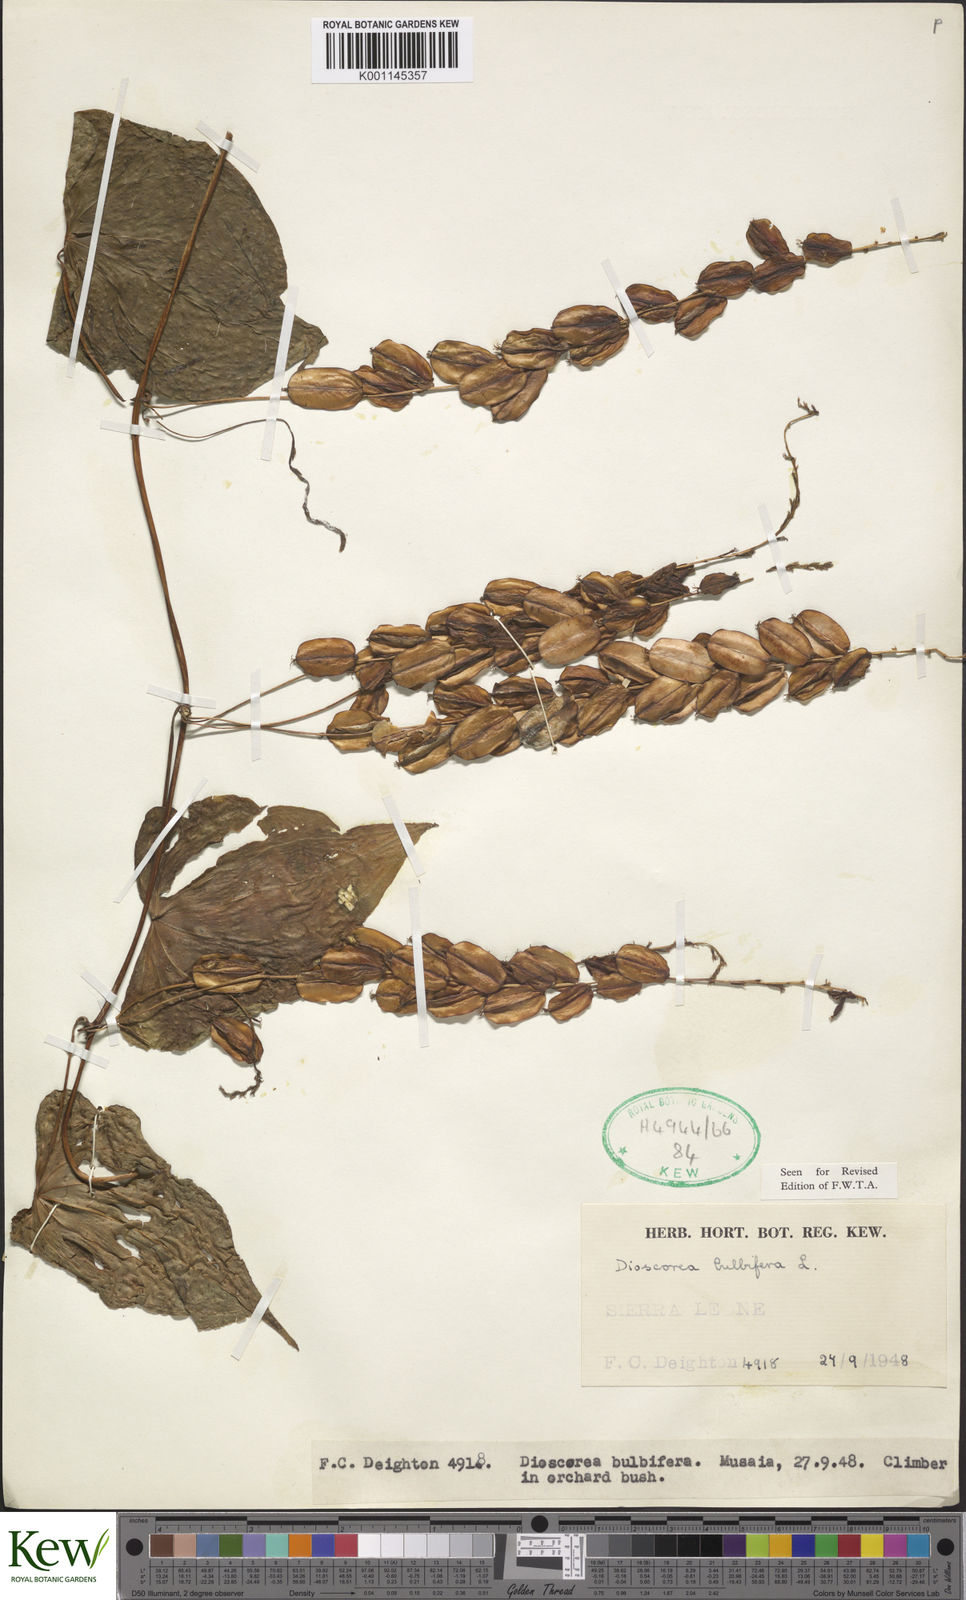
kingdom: Plantae
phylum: Tracheophyta
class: Liliopsida
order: Dioscoreales
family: Dioscoreaceae
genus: Dioscorea
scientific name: Dioscorea bulbifera
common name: Air yam
